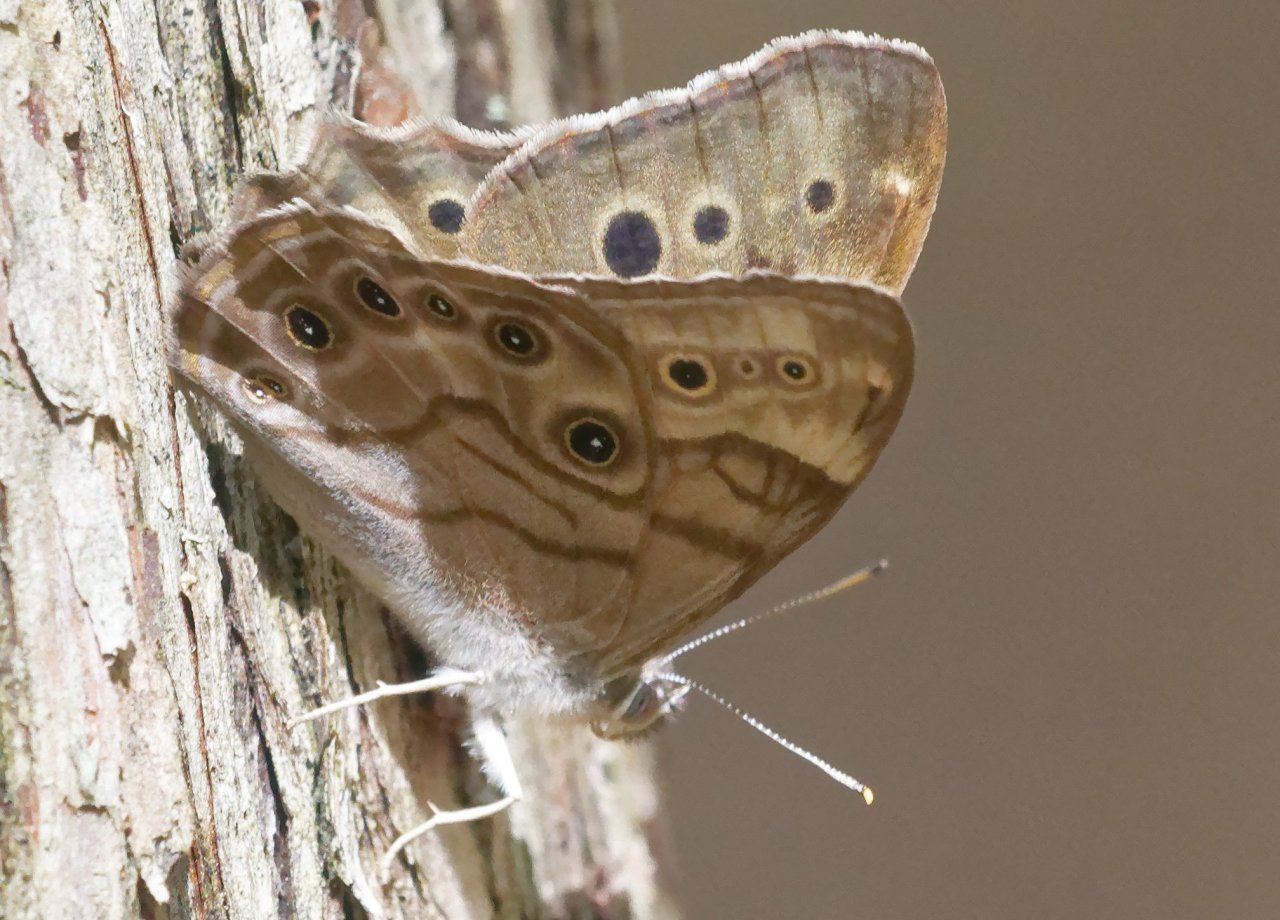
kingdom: Animalia
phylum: Arthropoda
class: Insecta
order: Lepidoptera
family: Nymphalidae
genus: Lethe
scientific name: Lethe anthedon
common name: Northern Pearly-Eye
